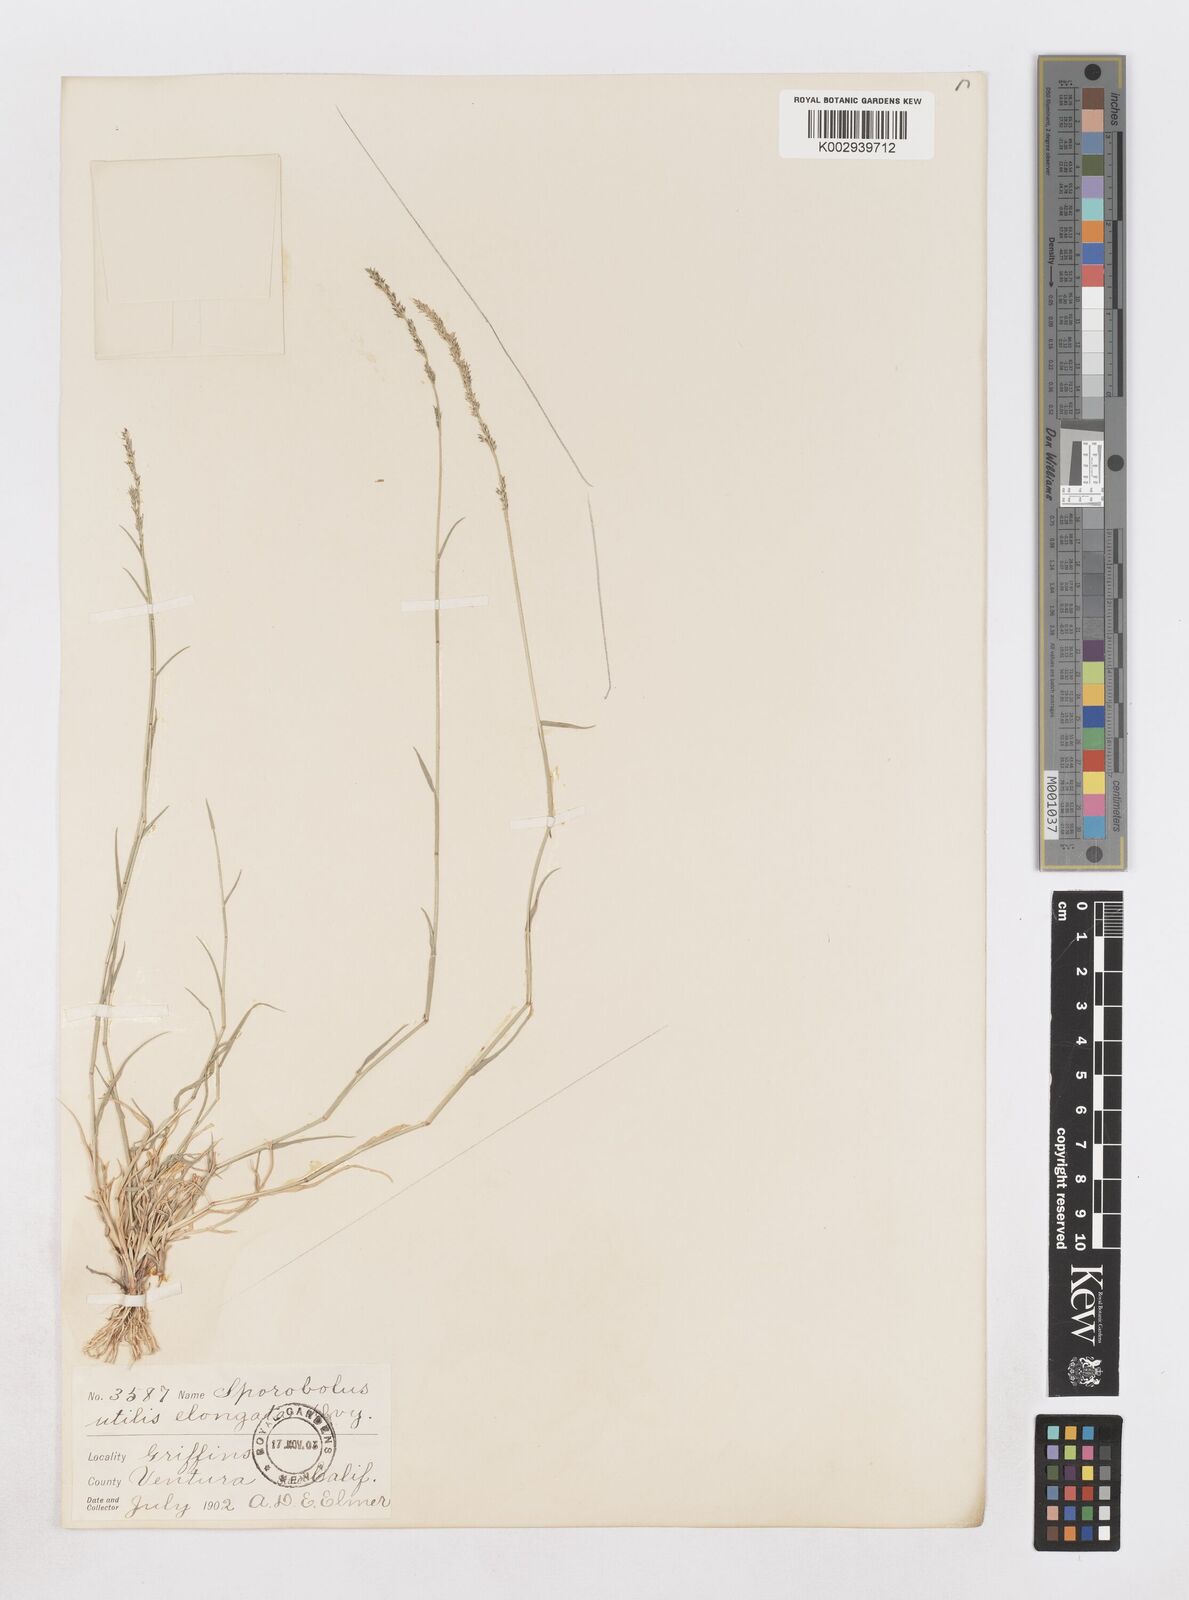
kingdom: Plantae
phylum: Tracheophyta
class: Liliopsida
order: Poales
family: Poaceae
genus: Muhlenbergia
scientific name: Muhlenbergia utilis
